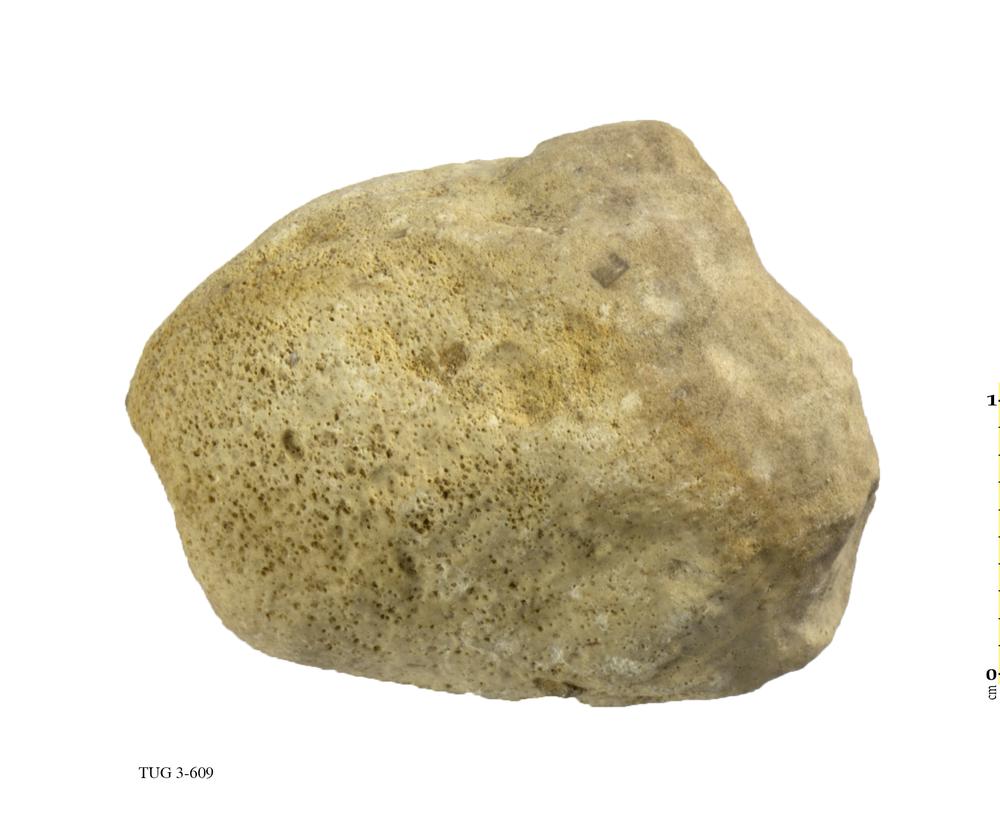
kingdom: Animalia
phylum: Porifera
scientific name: Porifera
